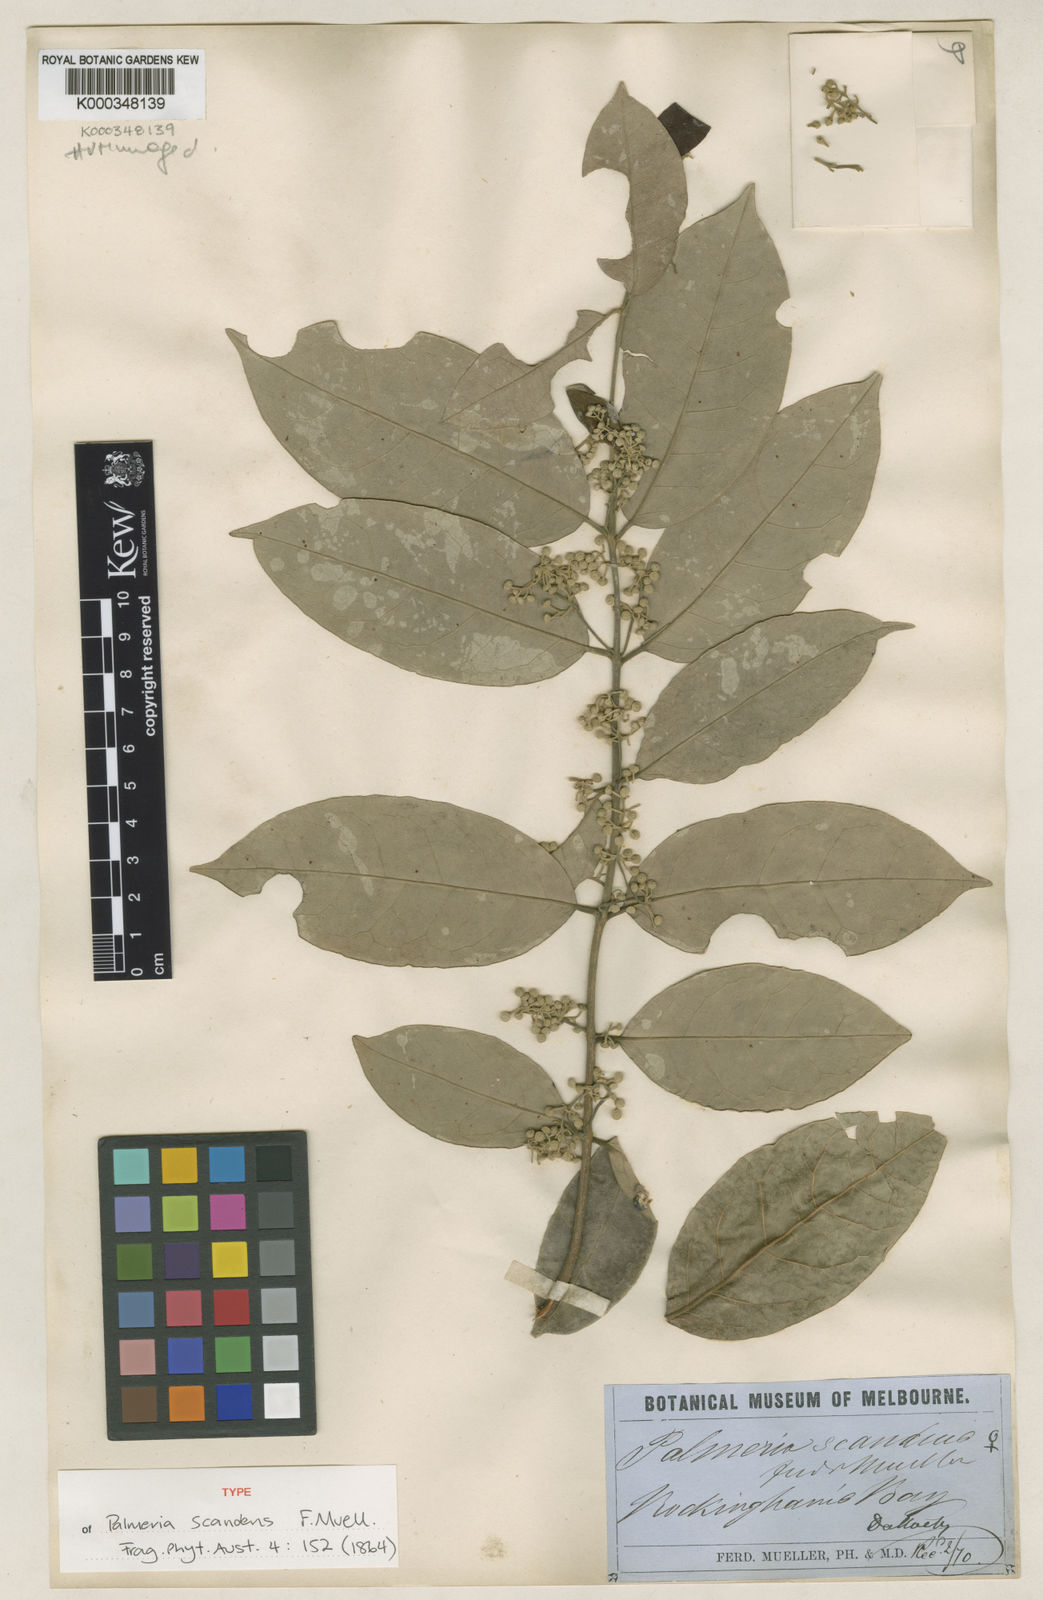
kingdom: Plantae
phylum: Tracheophyta
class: Magnoliopsida
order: Laurales
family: Monimiaceae
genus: Palmeria
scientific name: Palmeria scandens
